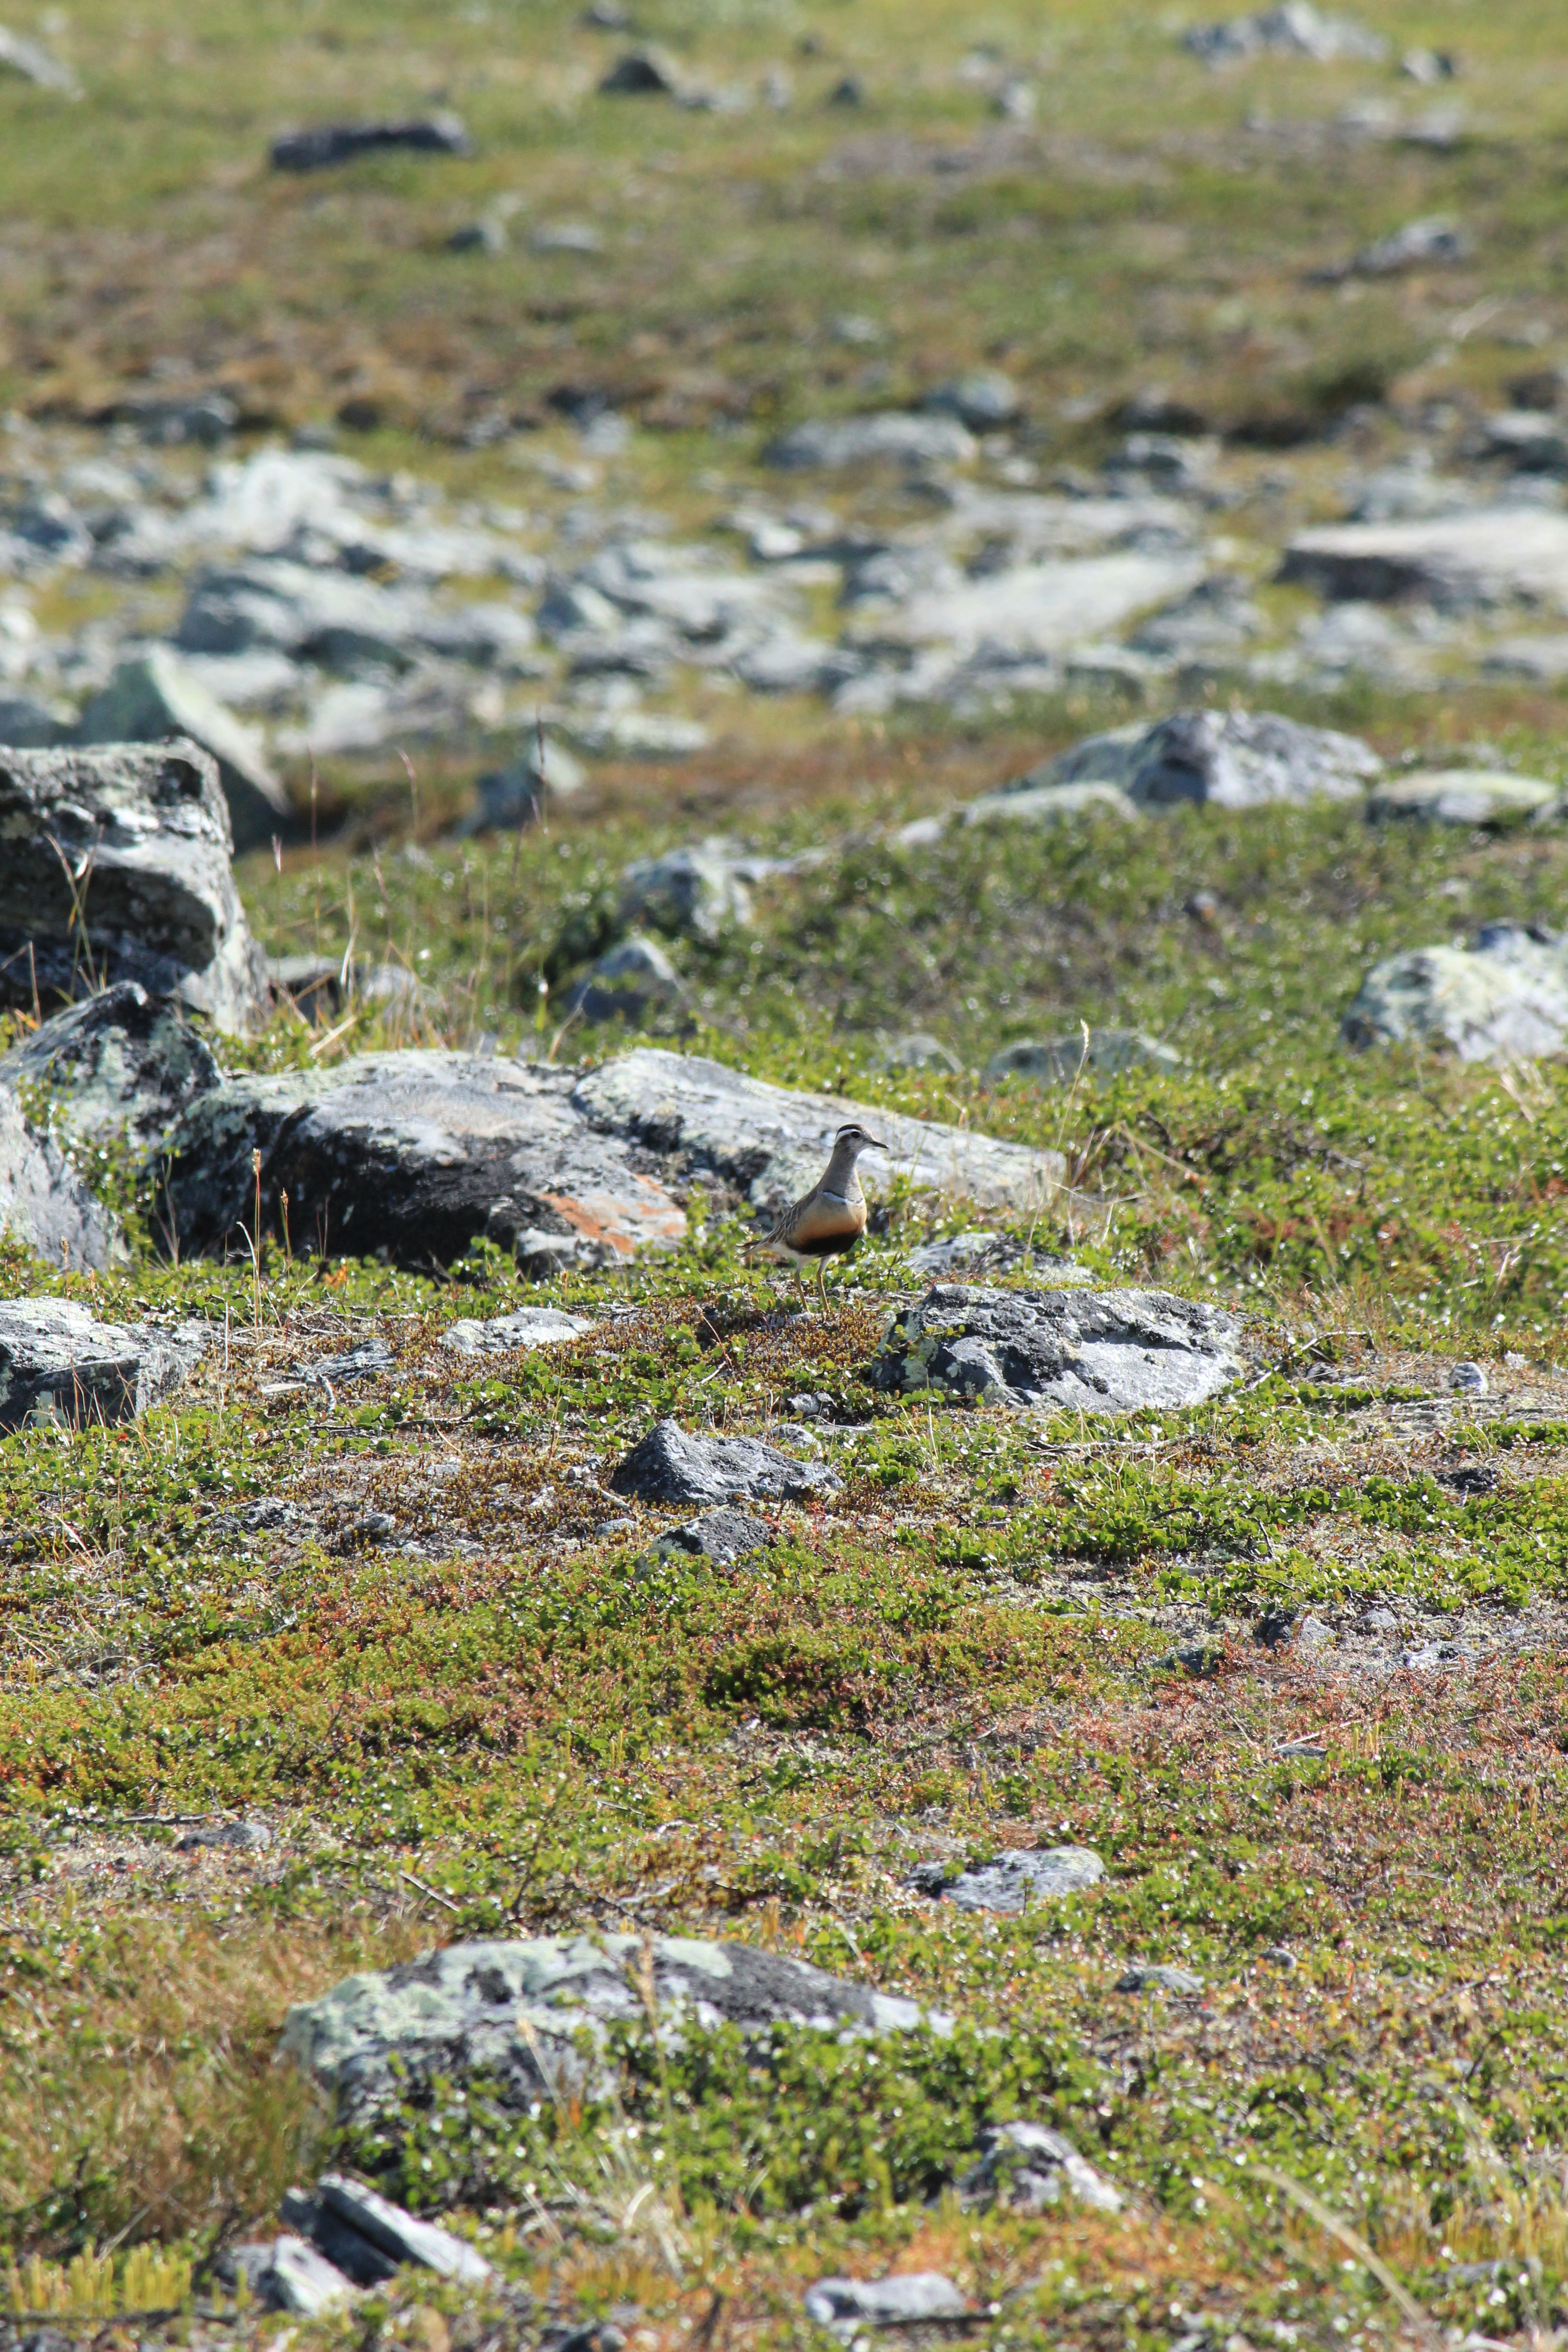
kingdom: Animalia
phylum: Chordata
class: Aves
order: Charadriiformes
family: Charadriidae
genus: Charadrius
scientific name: Charadrius morinellus
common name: Eurasian dotterel
